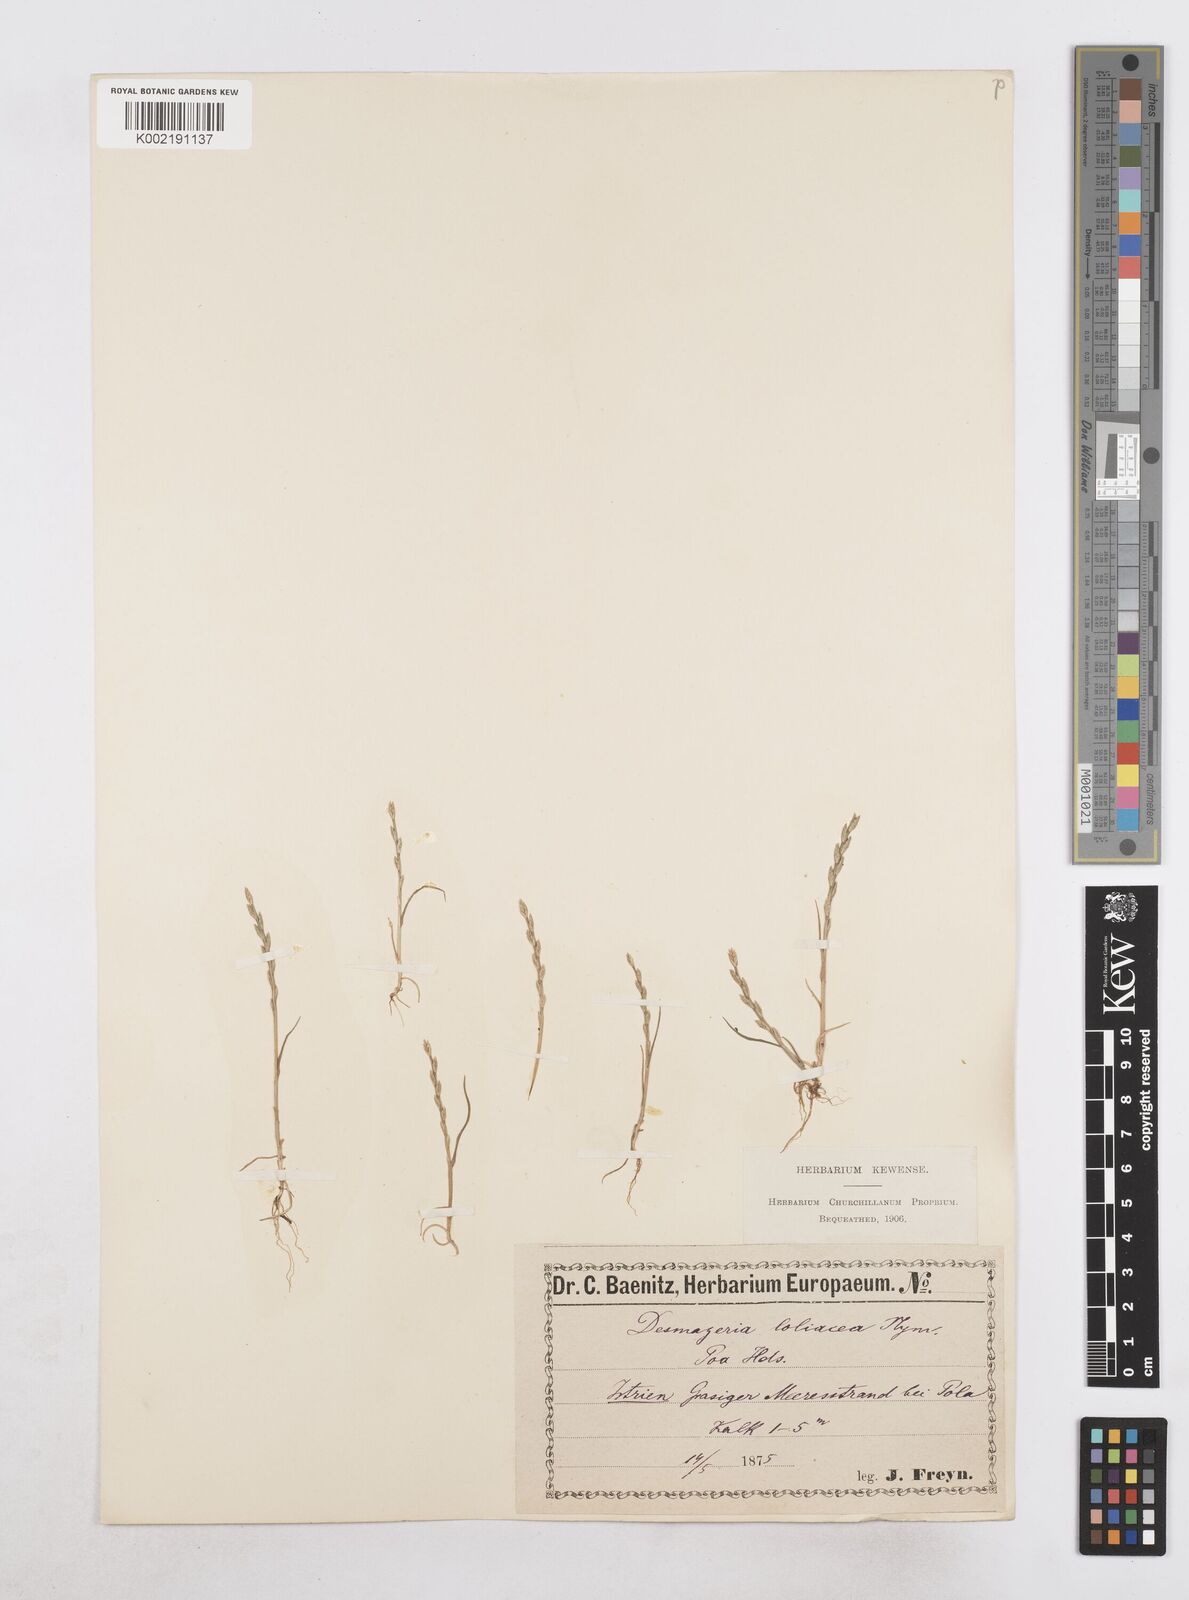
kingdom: Plantae
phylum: Tracheophyta
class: Liliopsida
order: Poales
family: Poaceae
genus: Catapodium
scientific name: Catapodium marinum
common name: Sea fern-grass
